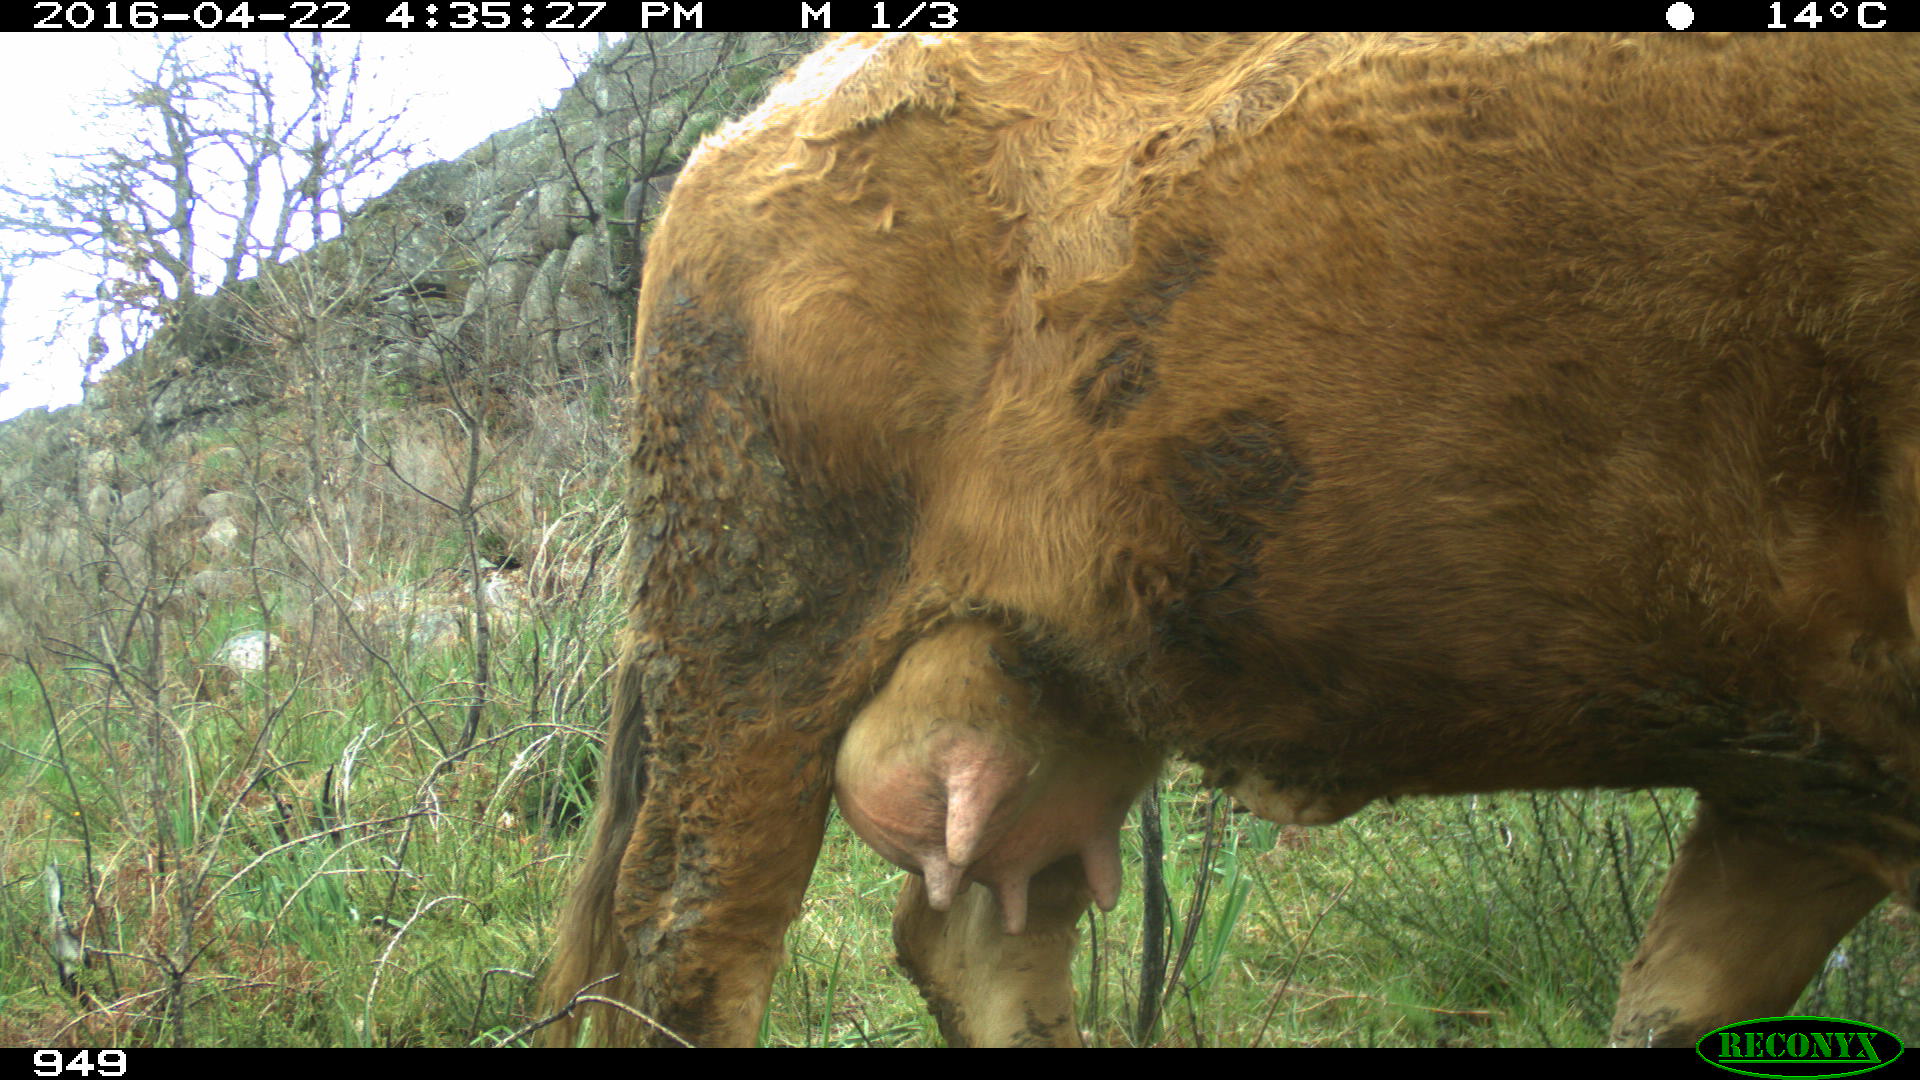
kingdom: Animalia
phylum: Chordata
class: Mammalia
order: Artiodactyla
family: Bovidae
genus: Bos
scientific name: Bos taurus
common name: Domesticated cattle
